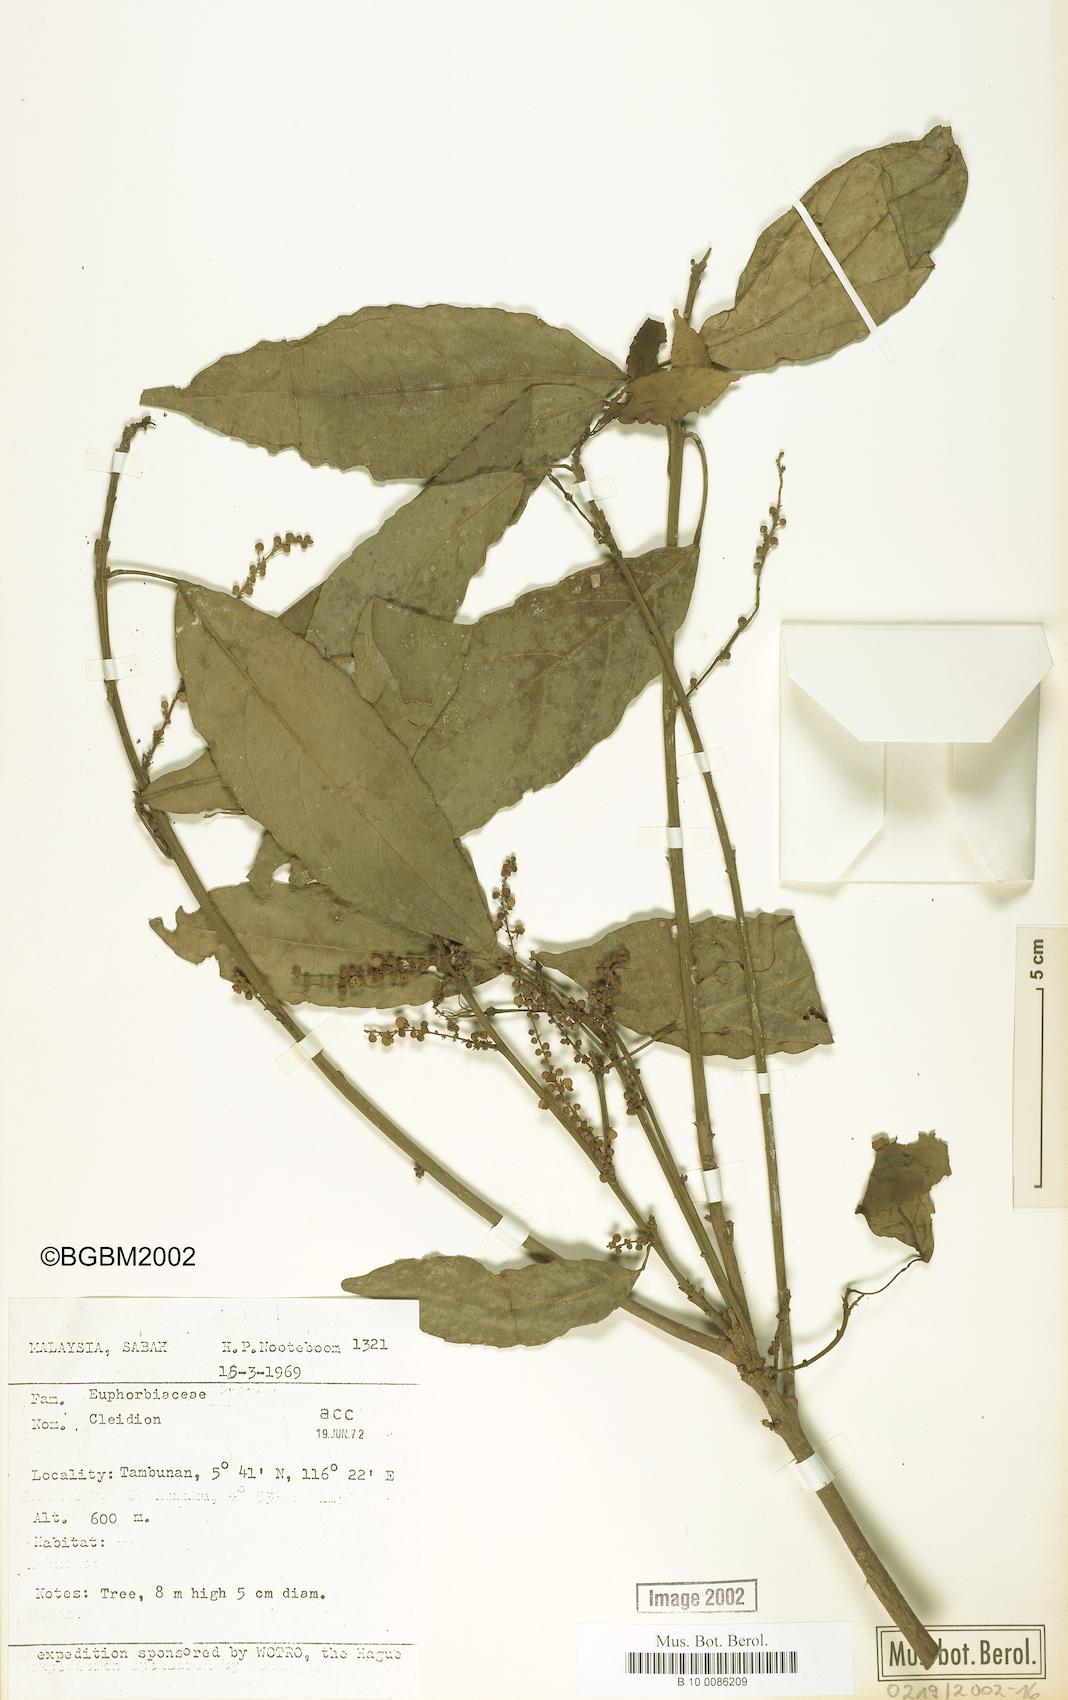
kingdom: Plantae
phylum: Tracheophyta
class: Magnoliopsida
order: Malpighiales
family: Euphorbiaceae
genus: Cleidion
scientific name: Cleidion
